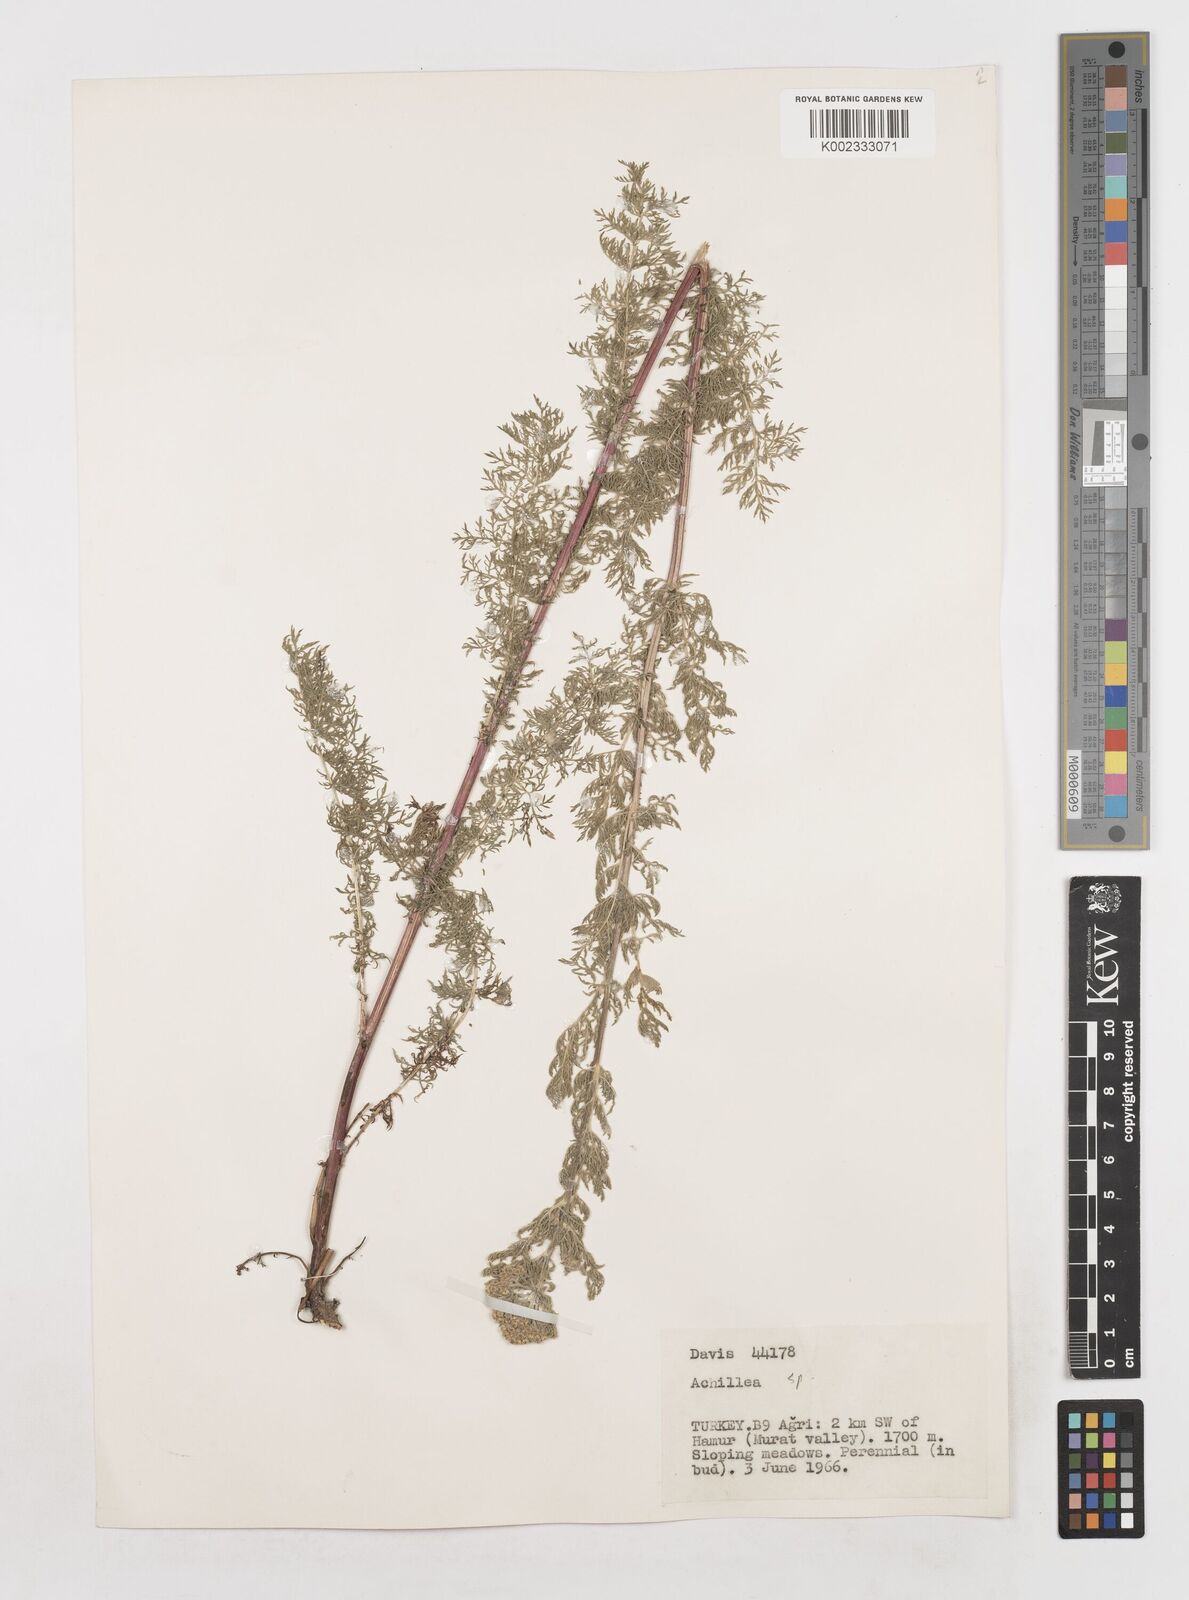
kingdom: Plantae
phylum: Tracheophyta
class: Magnoliopsida
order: Asterales
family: Asteraceae
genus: Achillea
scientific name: Achillea
